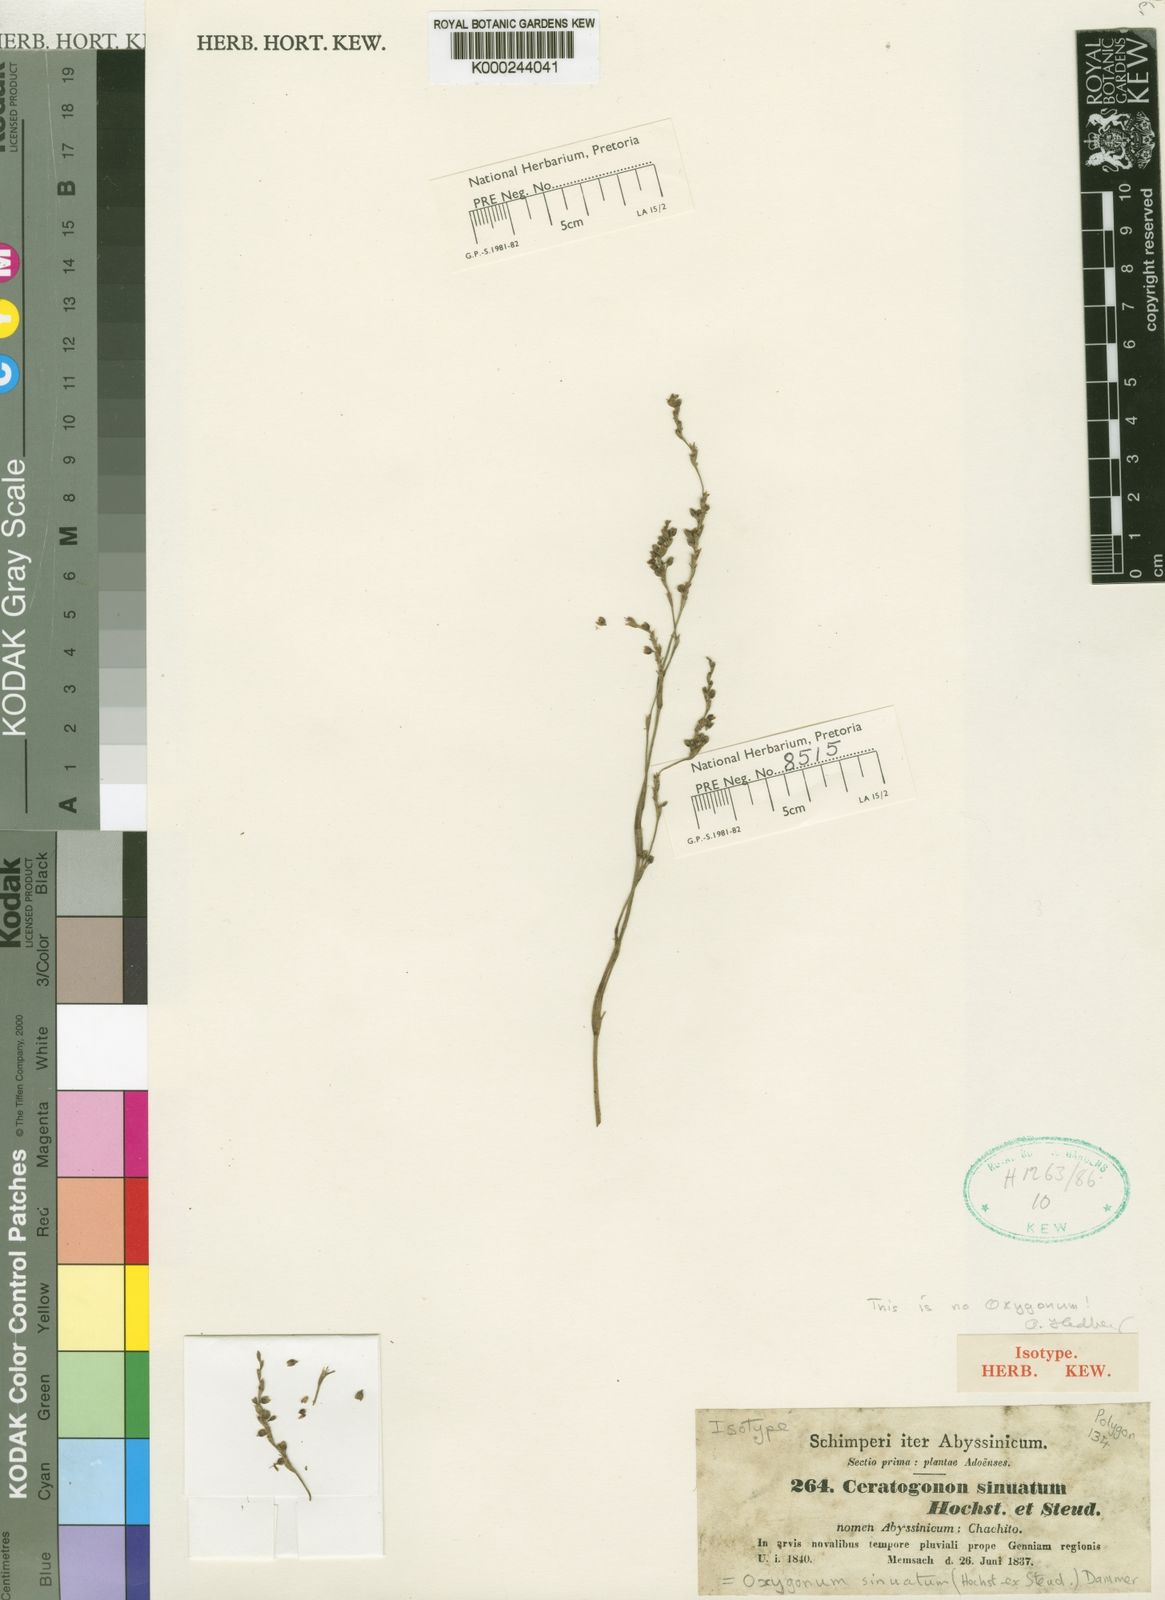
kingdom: Plantae
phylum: Tracheophyta
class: Magnoliopsida
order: Caryophyllales
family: Polygonaceae
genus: Oxygonum
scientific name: Oxygonum sinuatum
